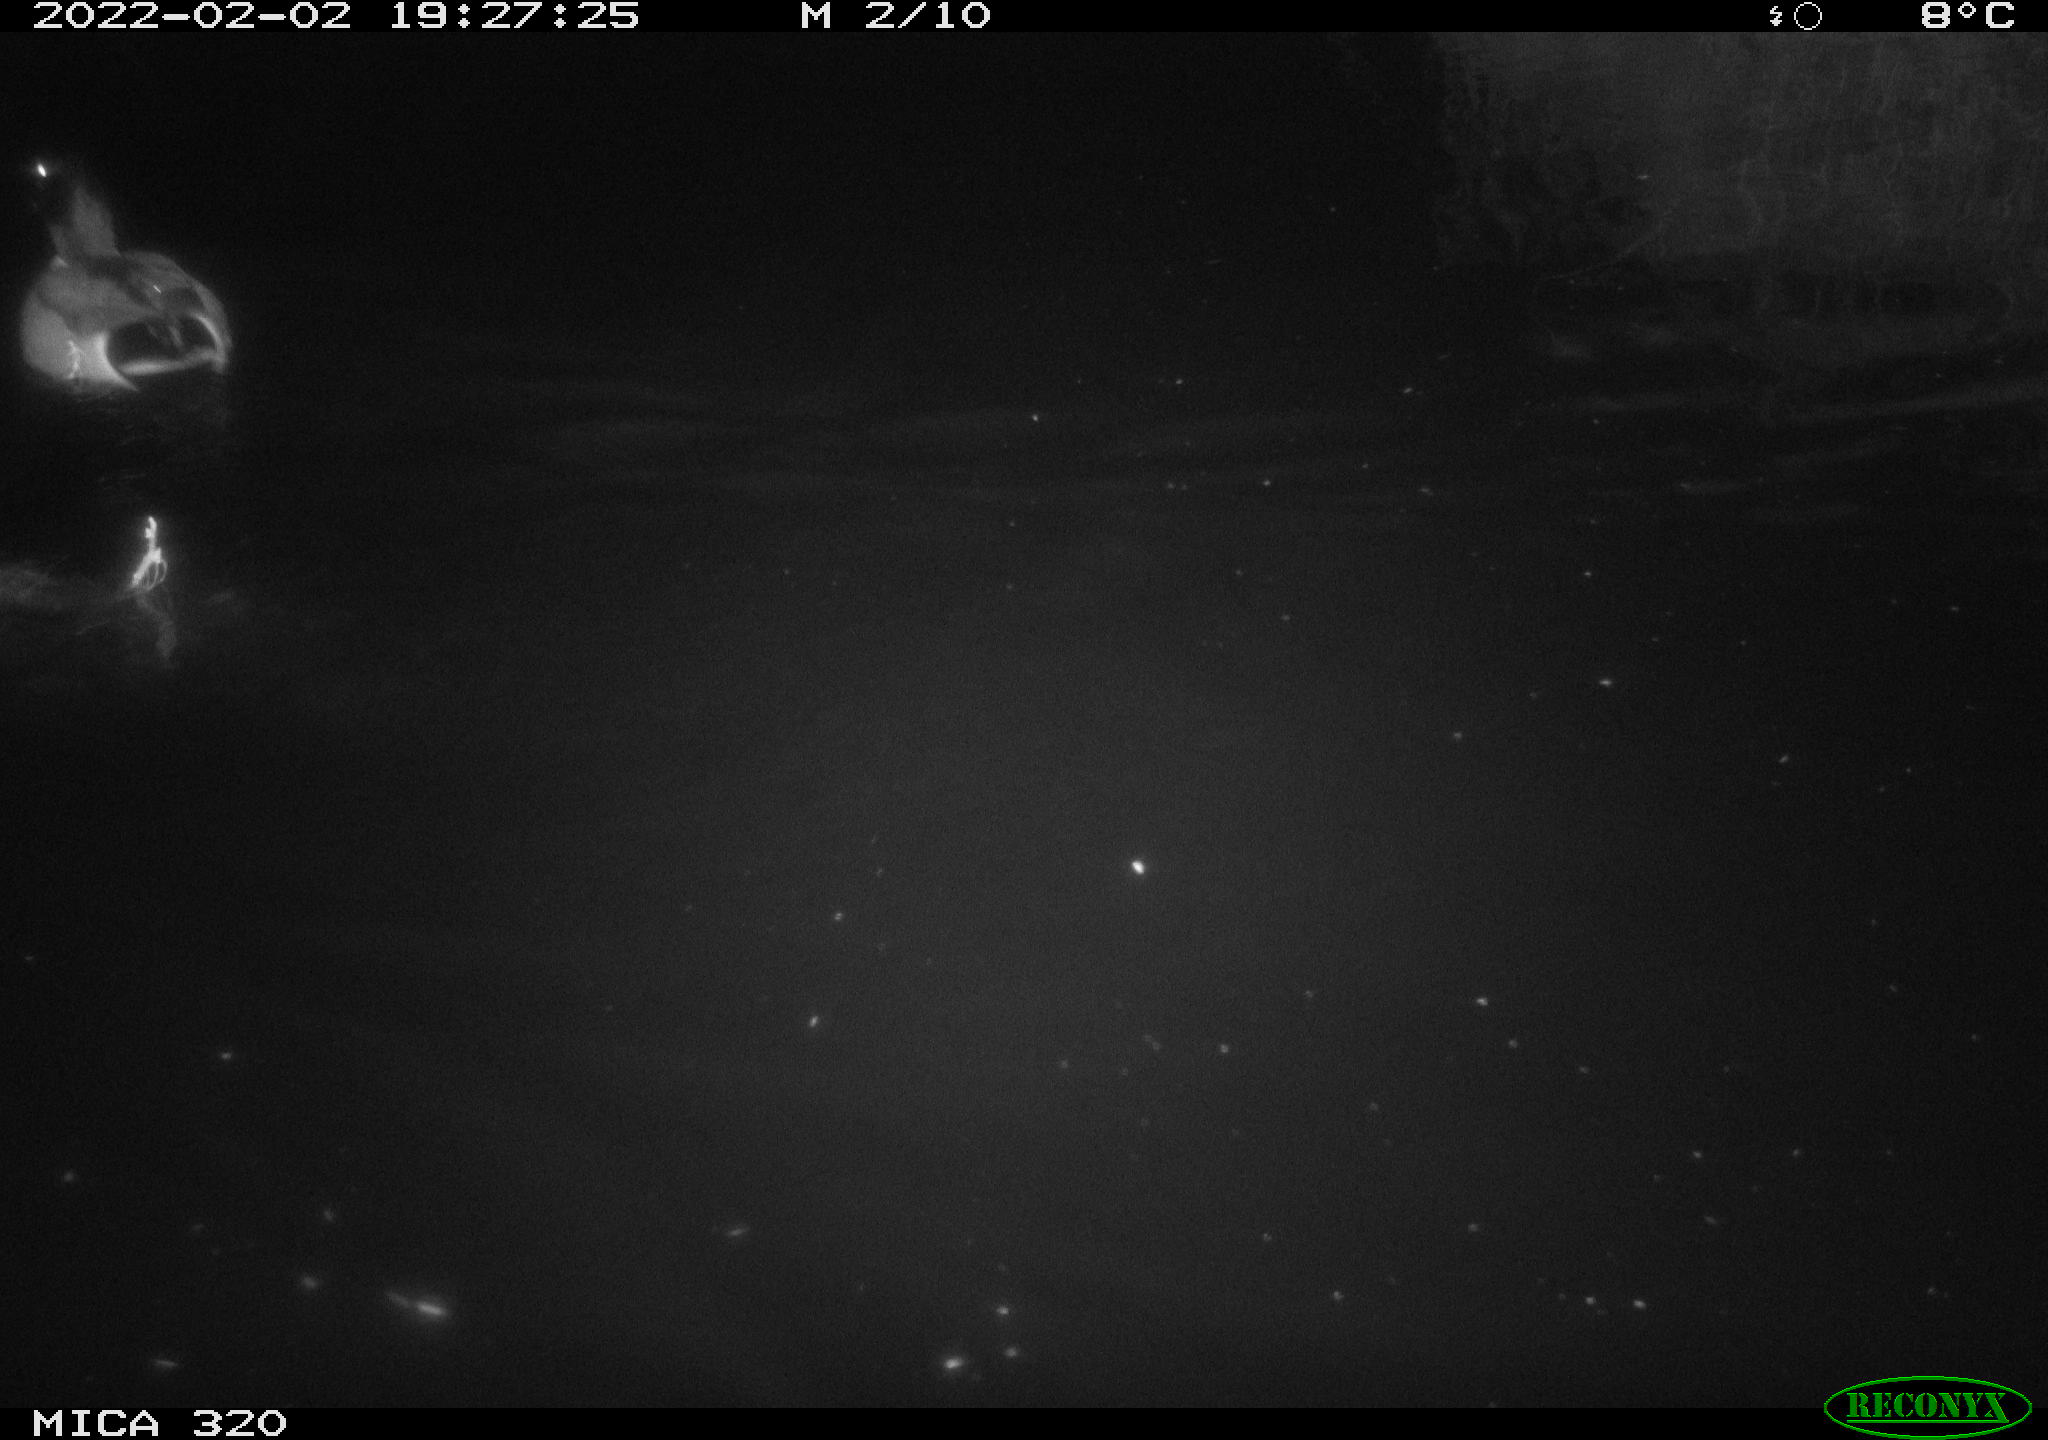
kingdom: Animalia
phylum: Chordata
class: Aves
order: Anseriformes
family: Anatidae
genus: Anas
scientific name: Anas
